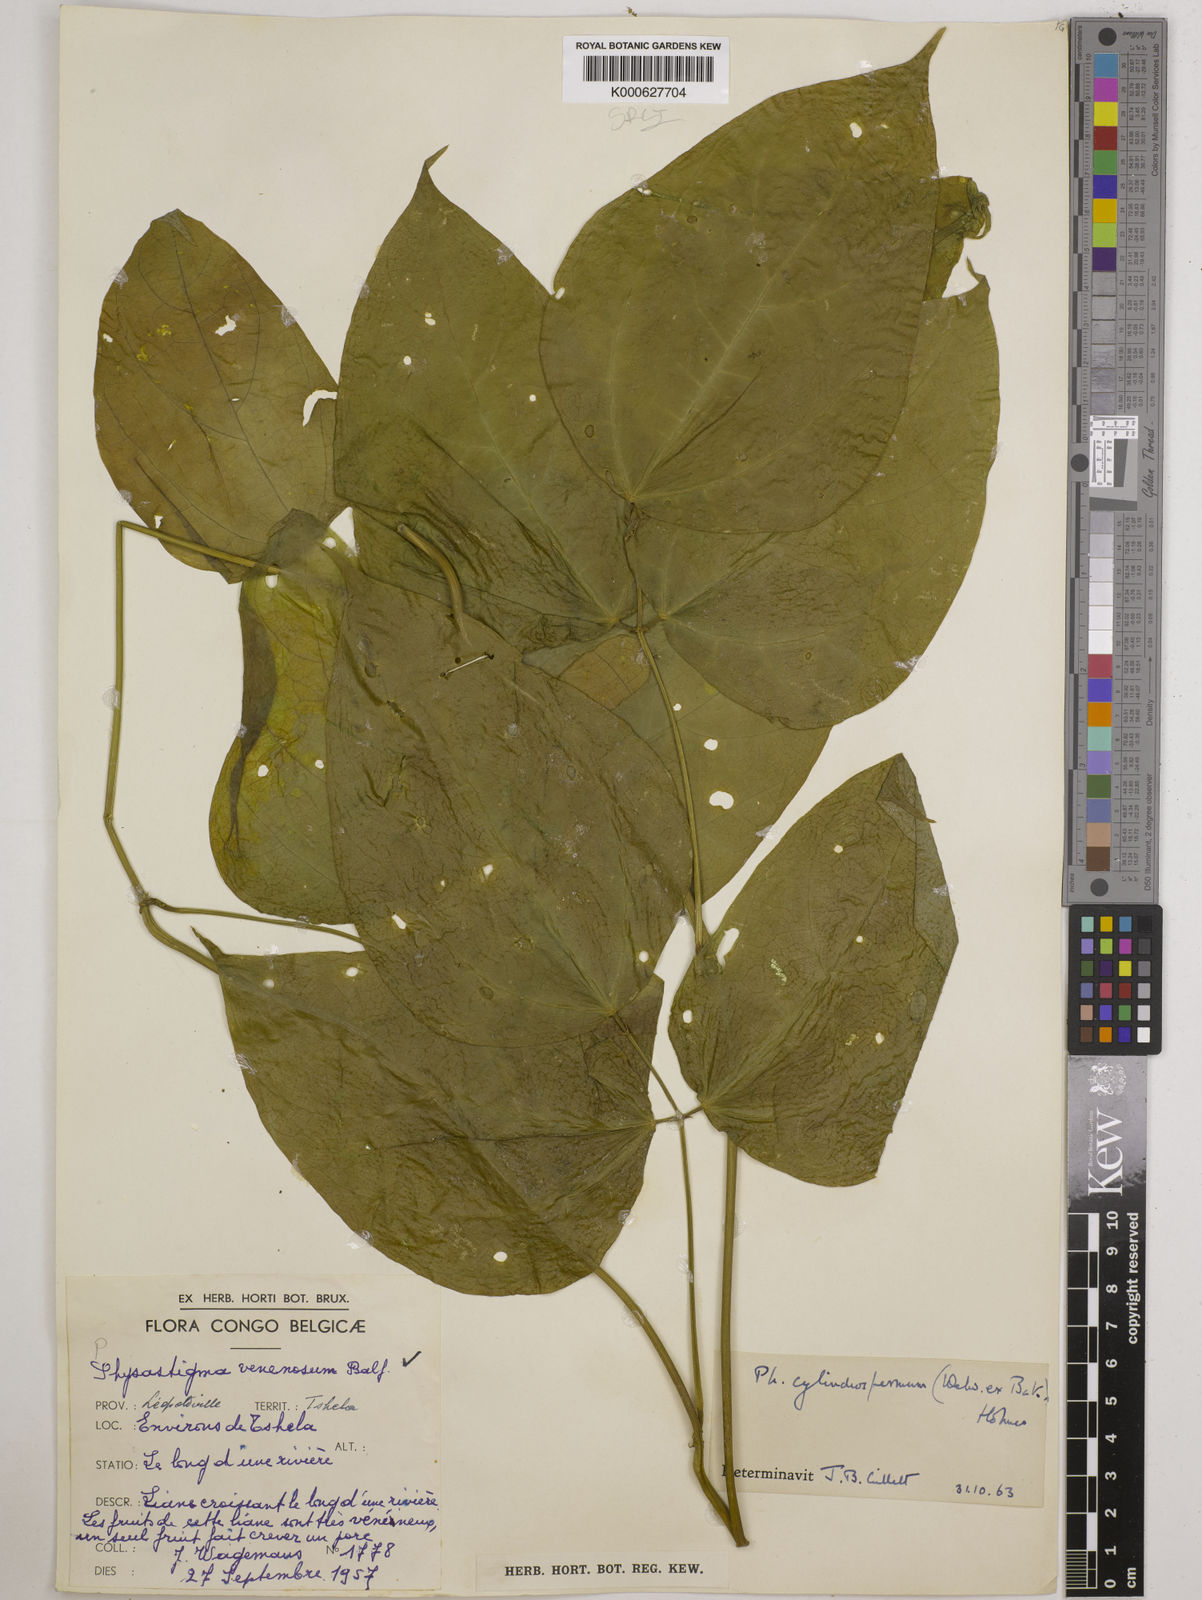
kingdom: Plantae
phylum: Tracheophyta
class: Magnoliopsida
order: Fabales
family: Fabaceae
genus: Physostigma
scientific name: Physostigma cylindrospermum
